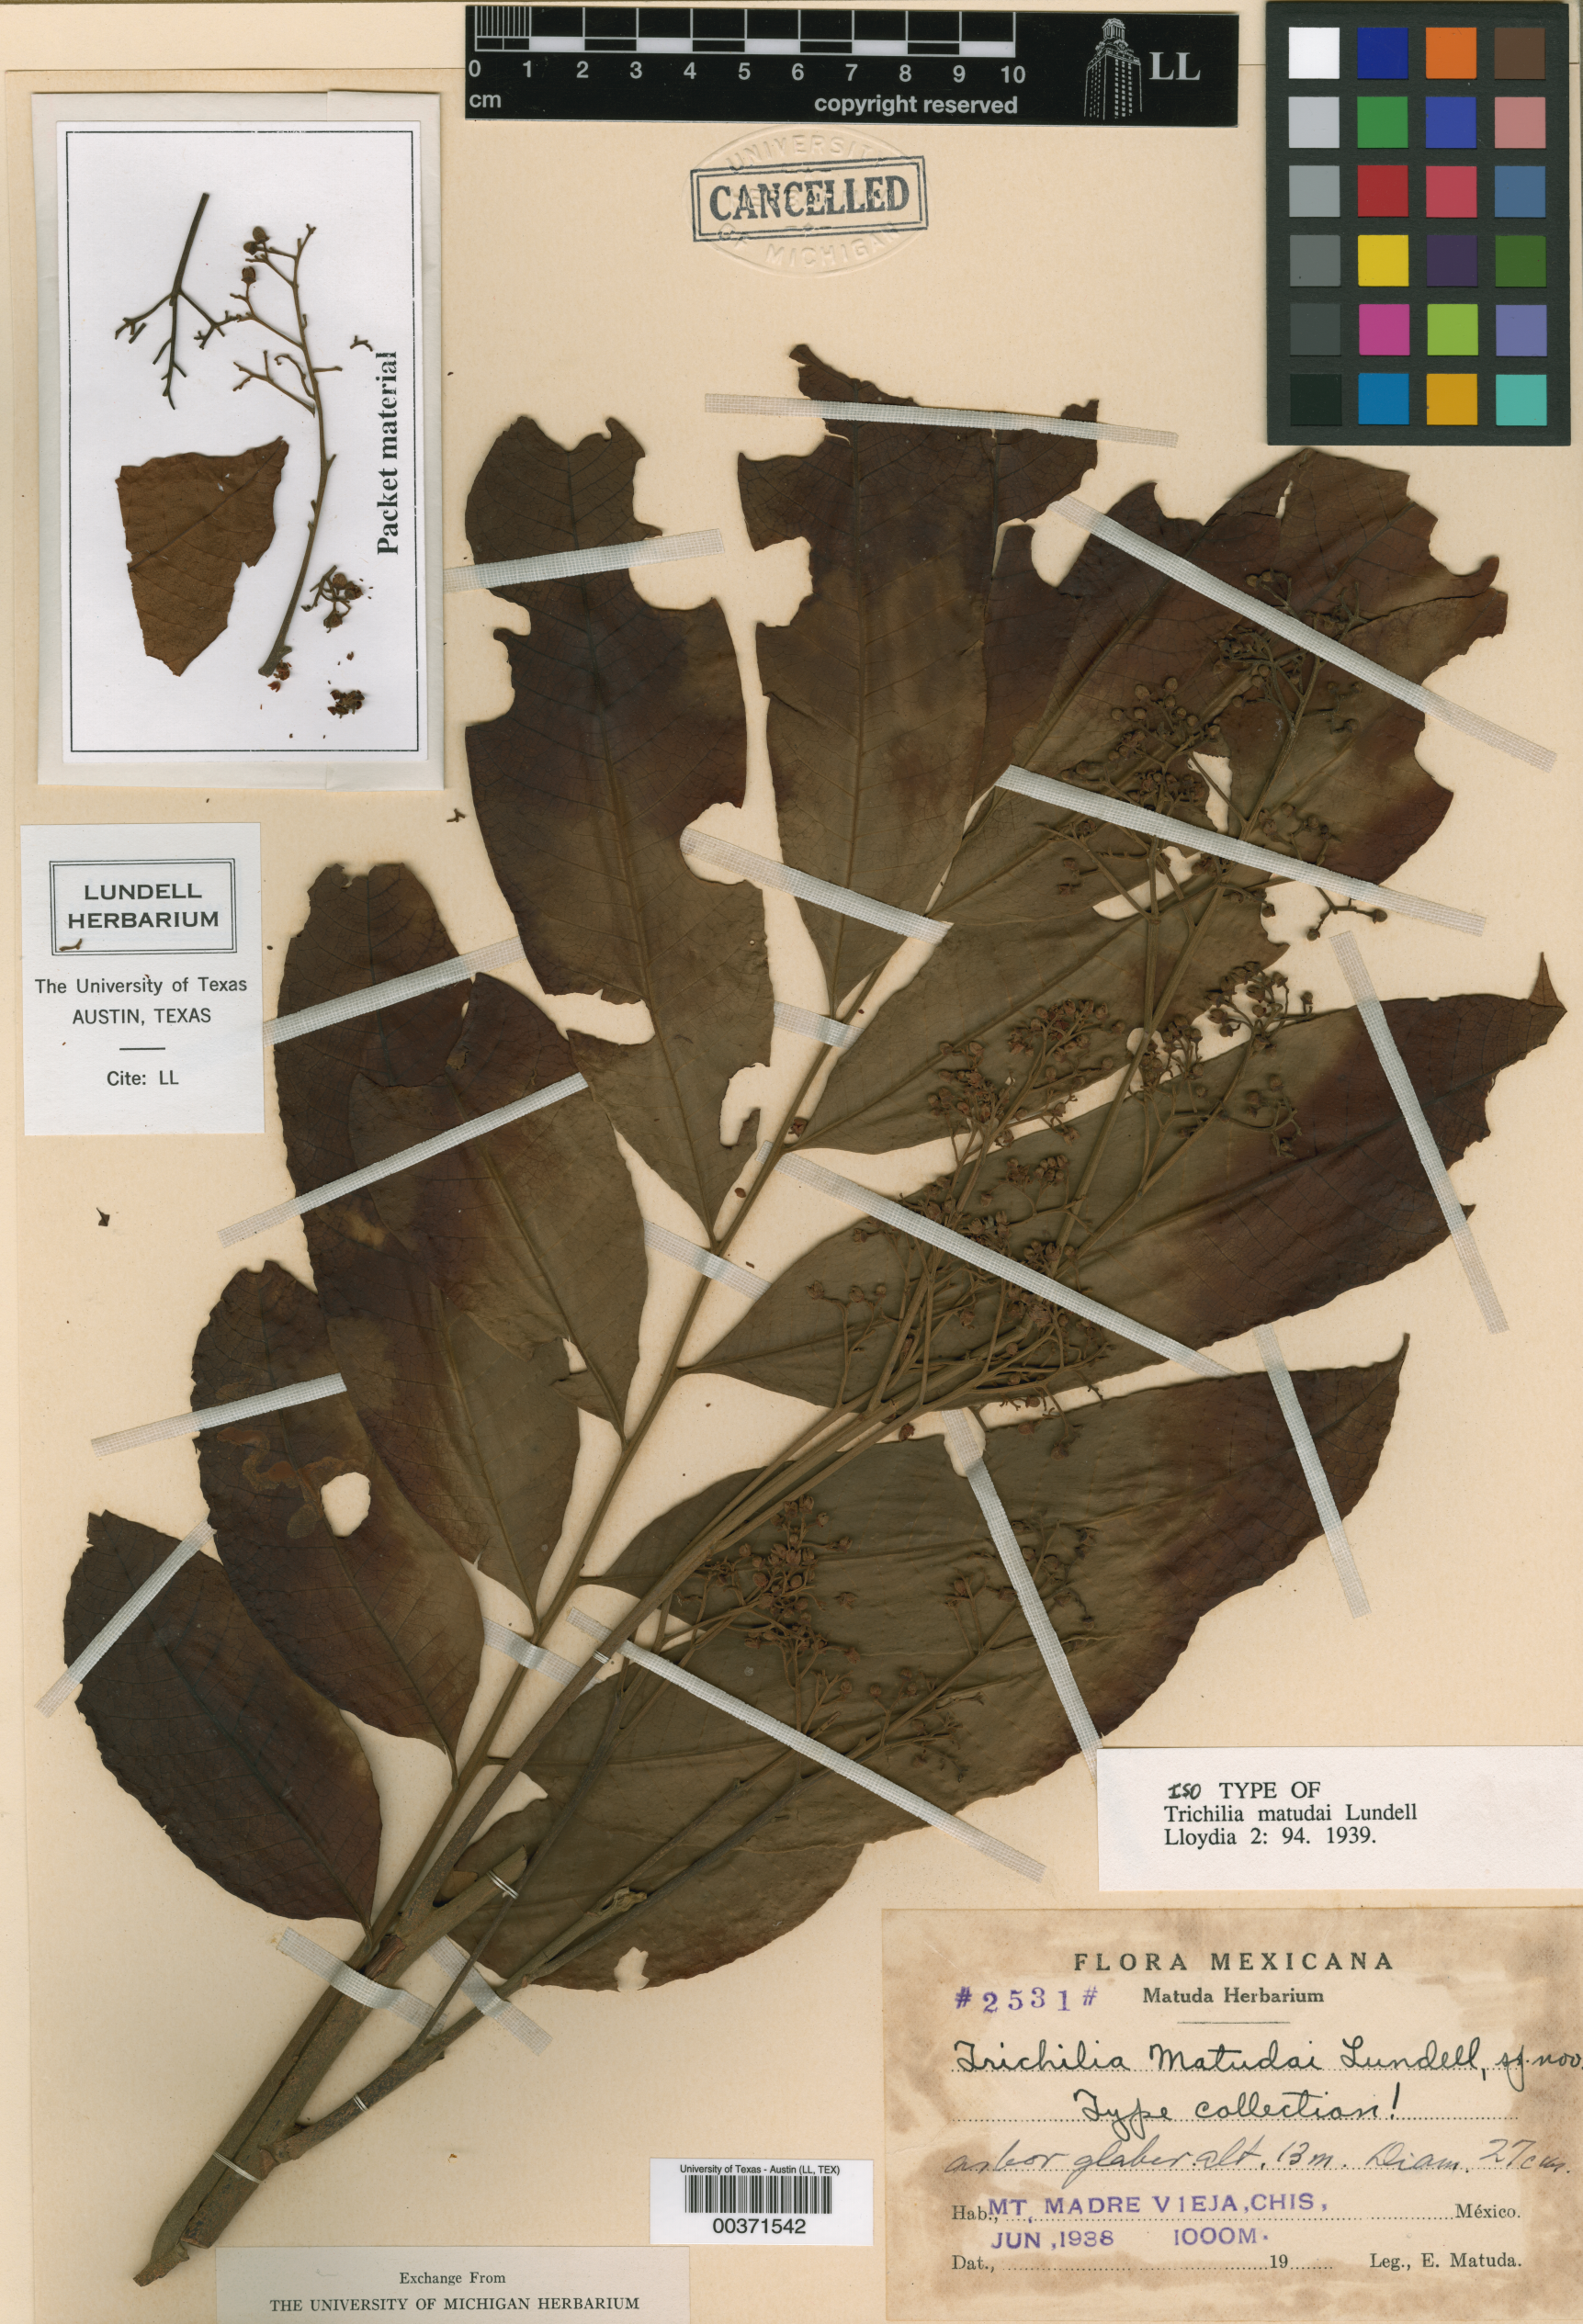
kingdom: Plantae
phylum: Tracheophyta
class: Magnoliopsida
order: Sapindales
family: Meliaceae
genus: Trichilia
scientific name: Trichilia moschata
